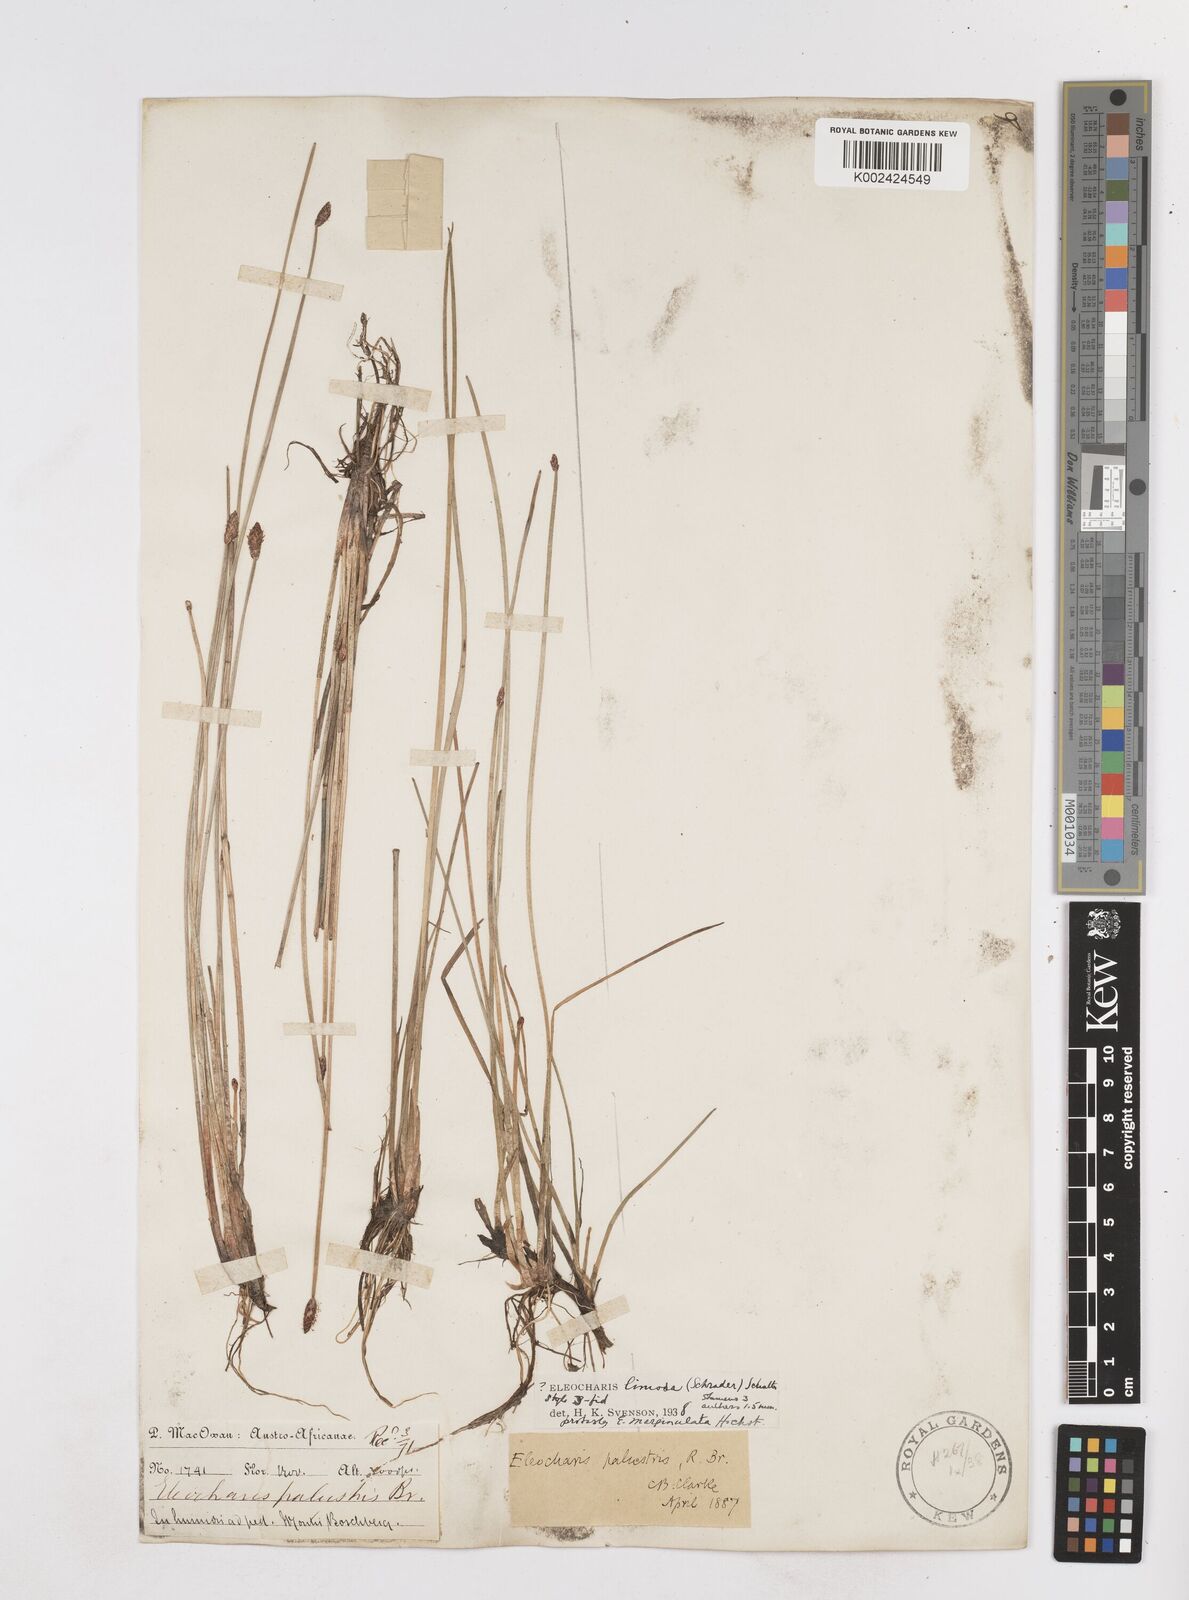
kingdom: Plantae
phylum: Tracheophyta
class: Liliopsida
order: Poales
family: Cyperaceae
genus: Eleocharis
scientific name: Eleocharis
